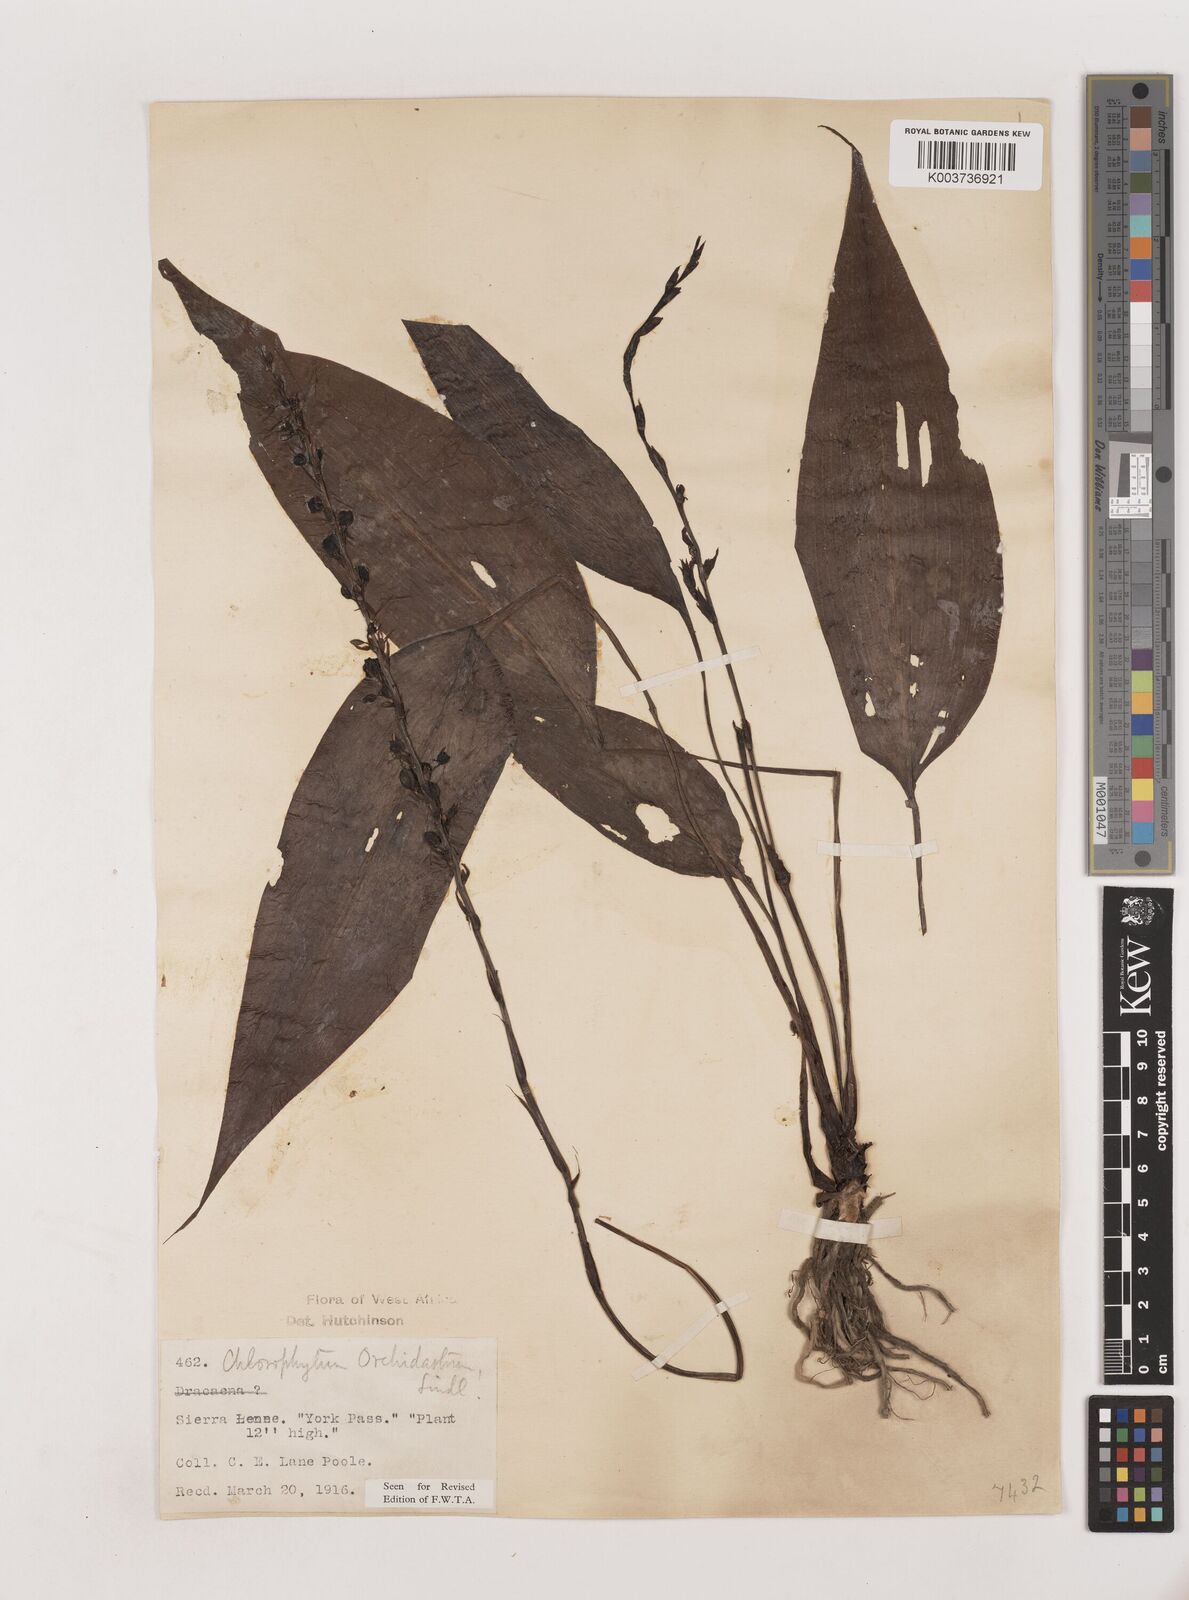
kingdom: Plantae
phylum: Tracheophyta
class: Liliopsida
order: Asparagales
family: Asparagaceae
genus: Chlorophytum
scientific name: Chlorophytum orchidastrum
